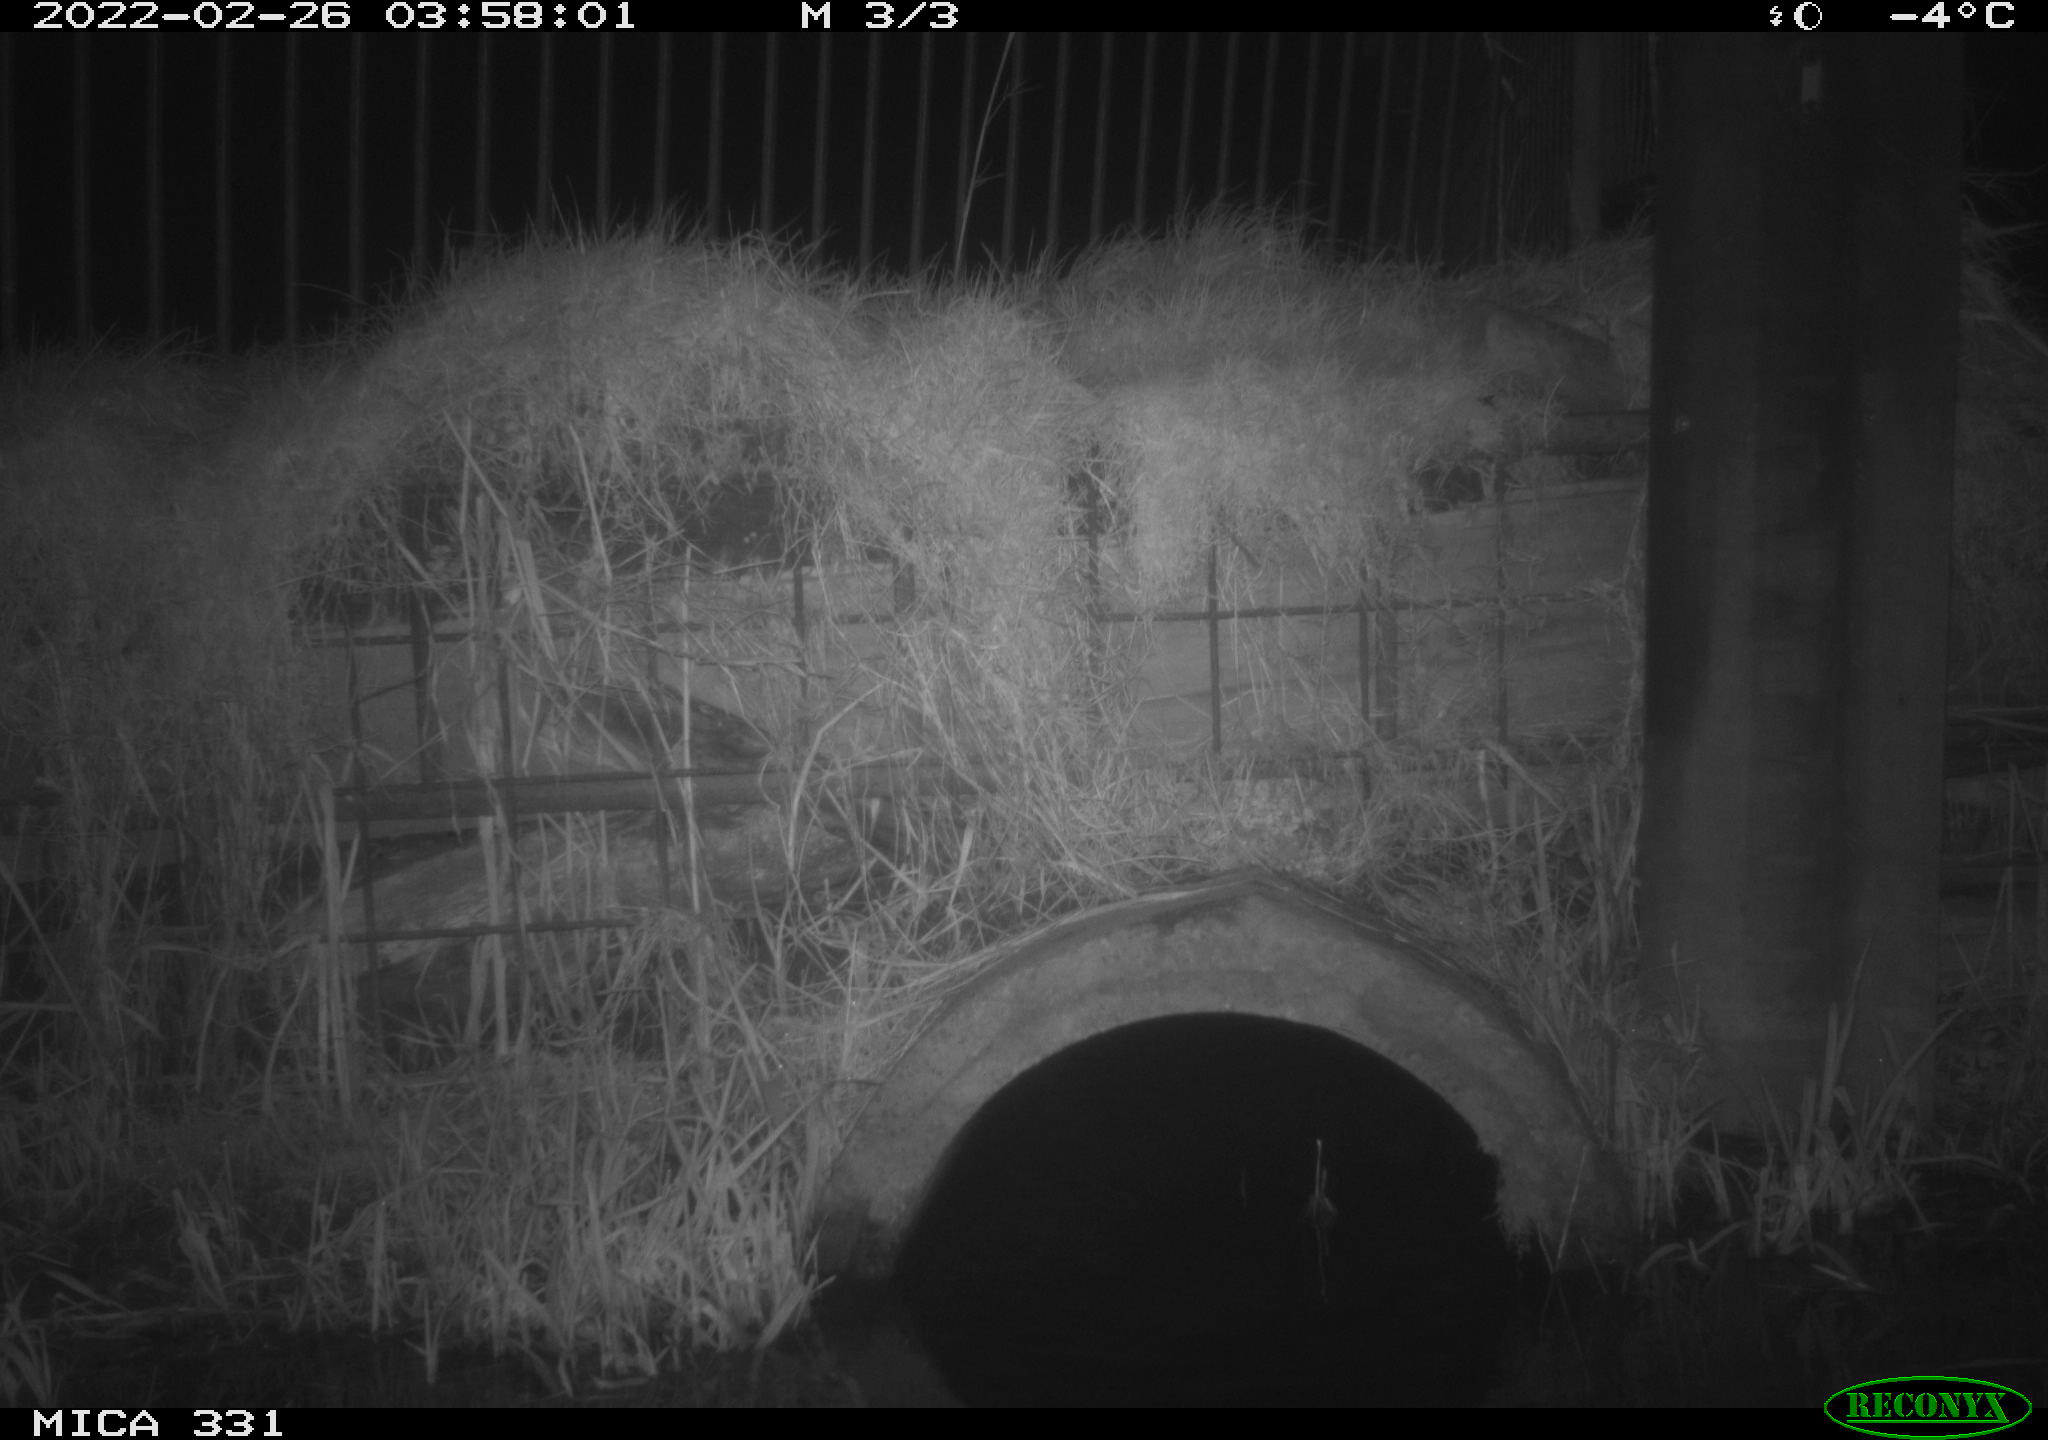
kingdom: Animalia
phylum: Chordata
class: Mammalia
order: Carnivora
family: Canidae
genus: Vulpes
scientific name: Vulpes vulpes
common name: Red fox
